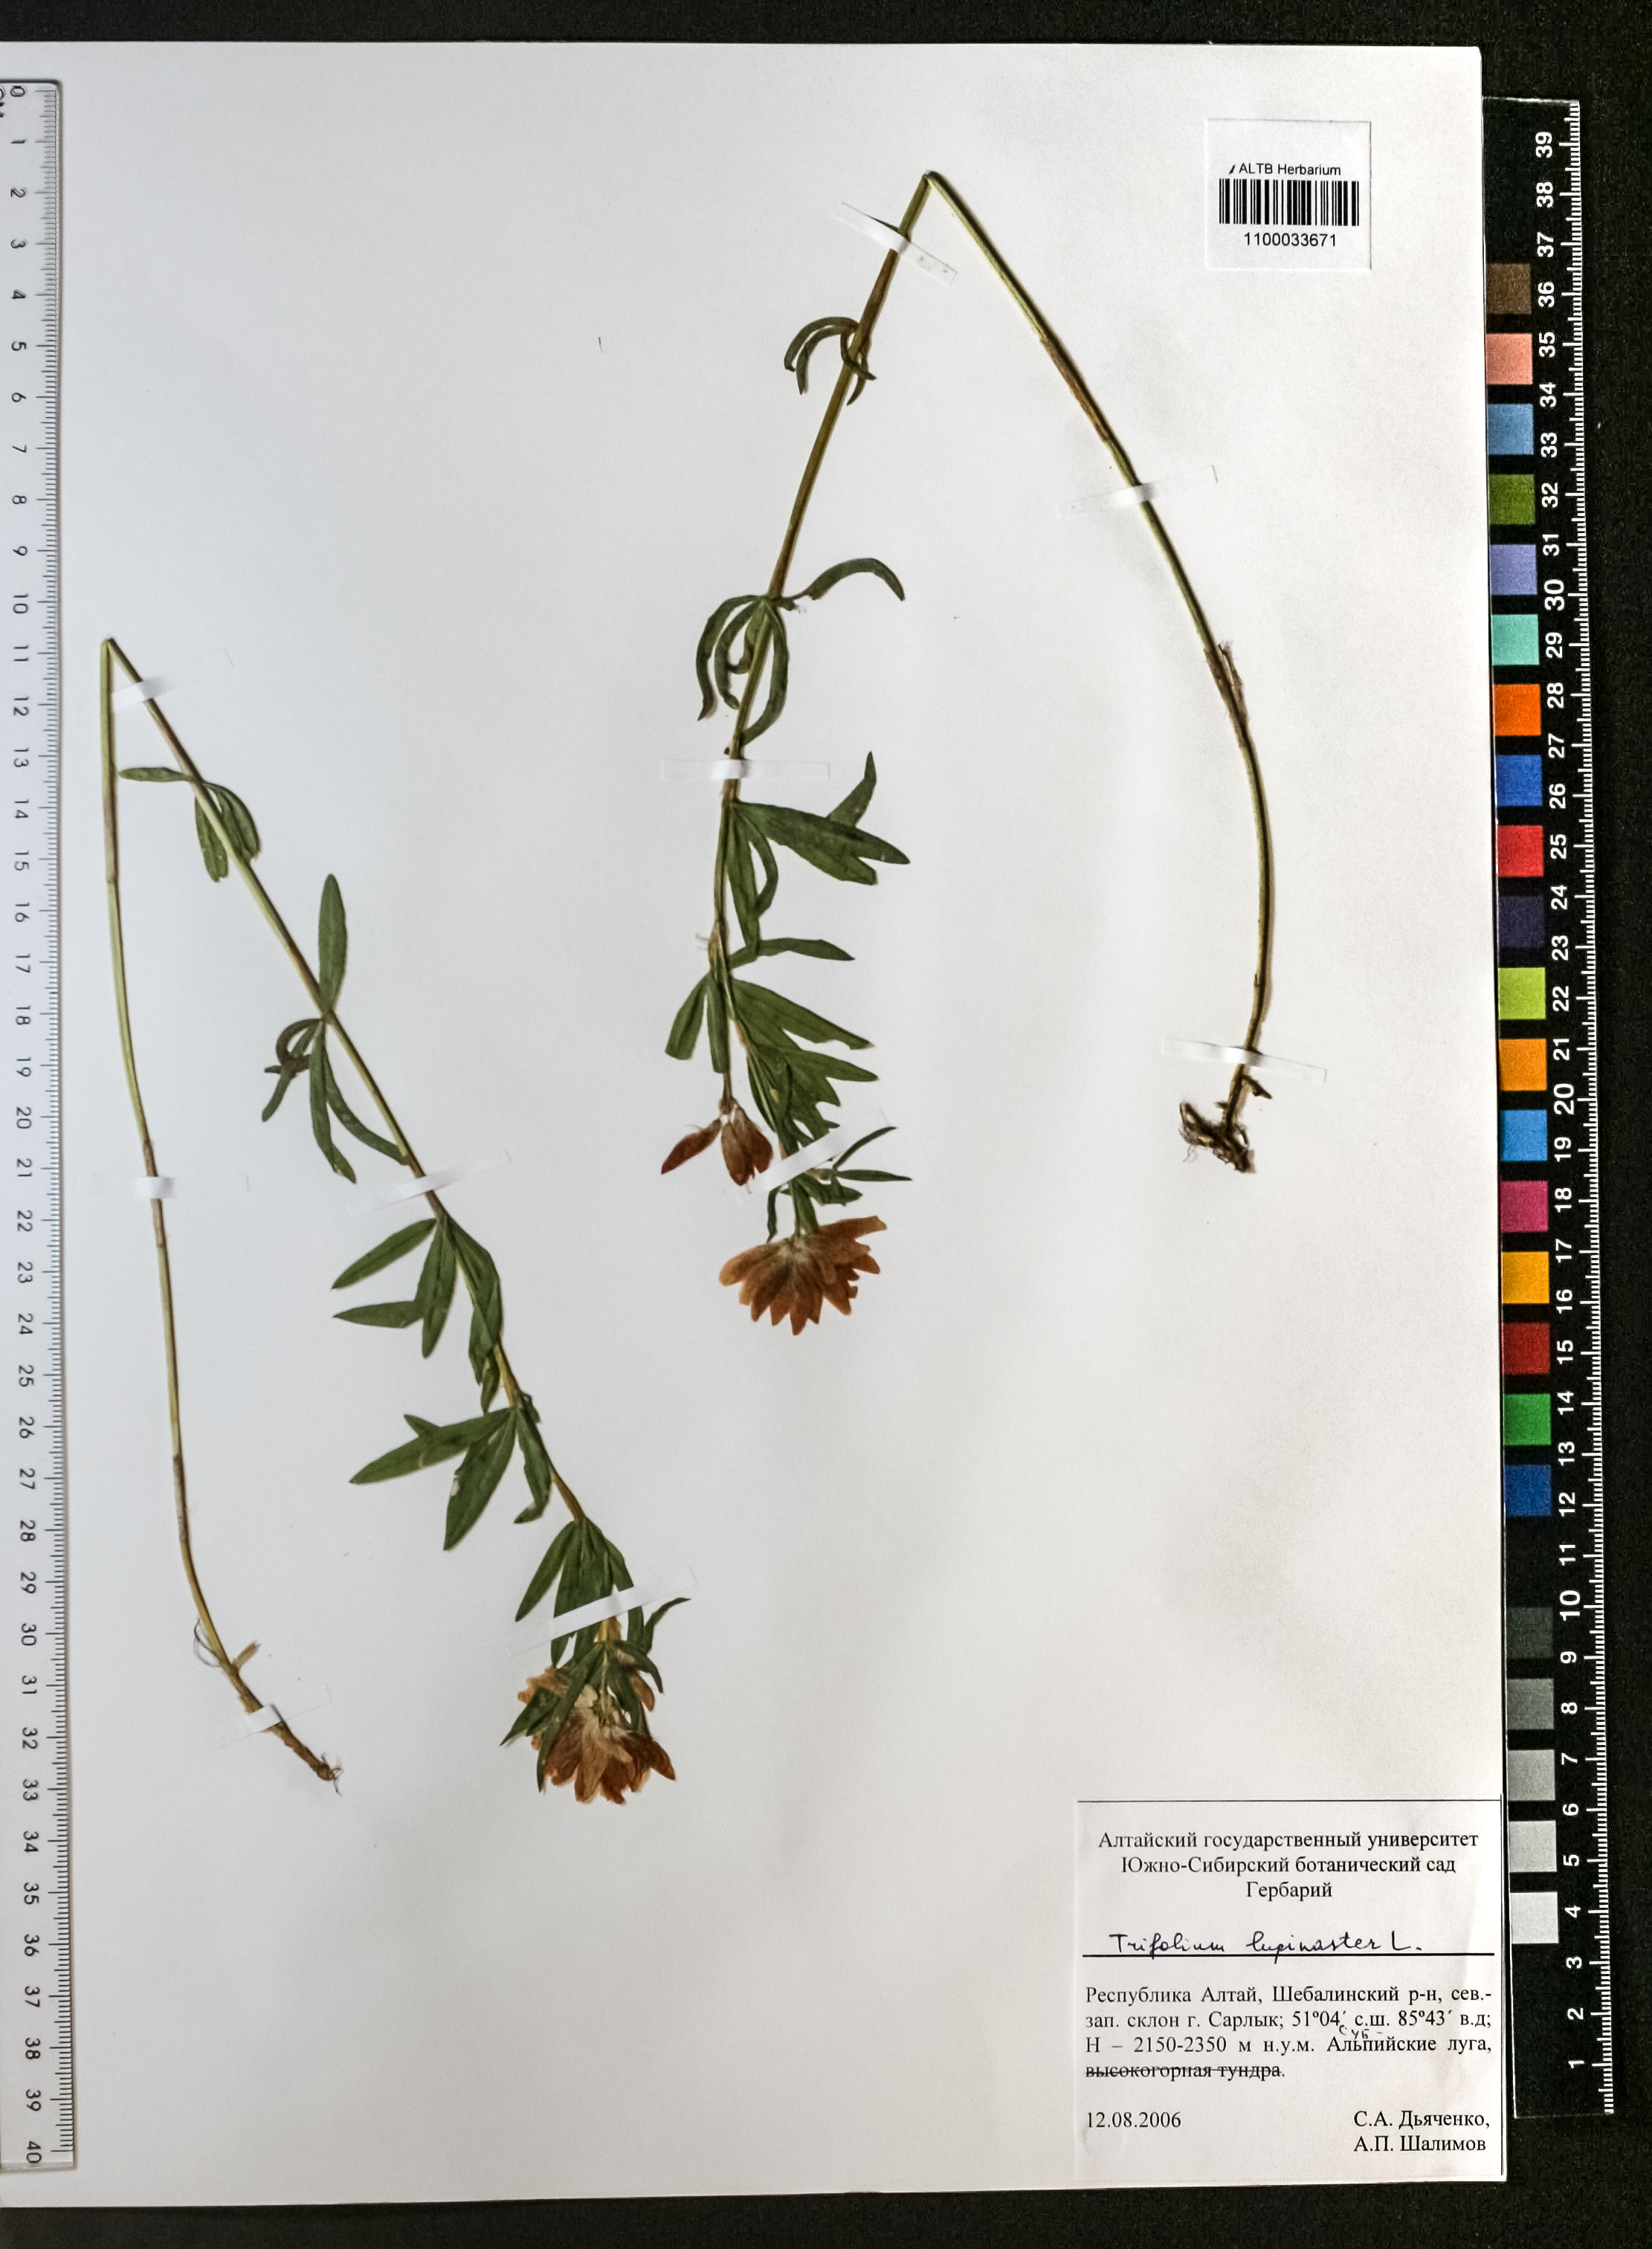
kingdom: Plantae
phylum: Tracheophyta
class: Magnoliopsida
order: Fabales
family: Fabaceae
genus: Trifolium
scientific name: Trifolium lupinaster
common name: Lupine clover
